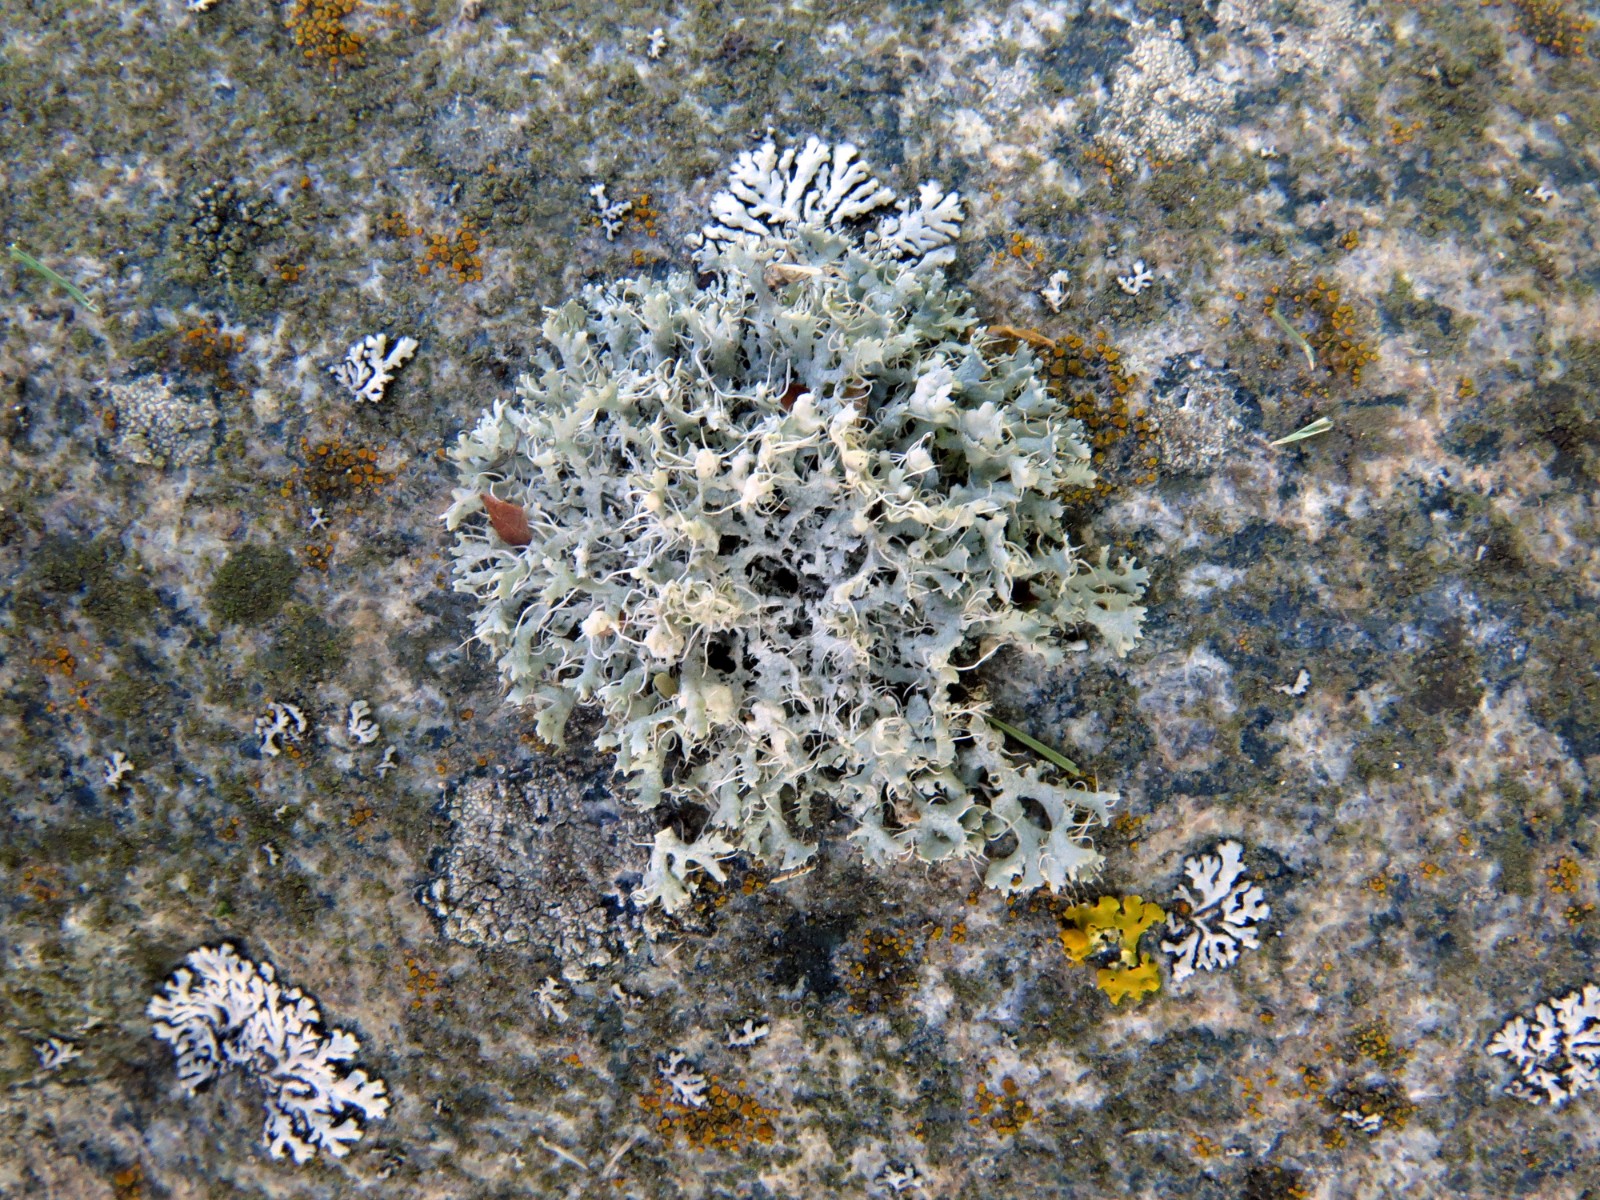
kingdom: Fungi
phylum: Ascomycota
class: Lecanoromycetes
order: Caliciales
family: Physciaceae
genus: Physcia
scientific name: Physcia tenella
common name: spæd rosetlav
